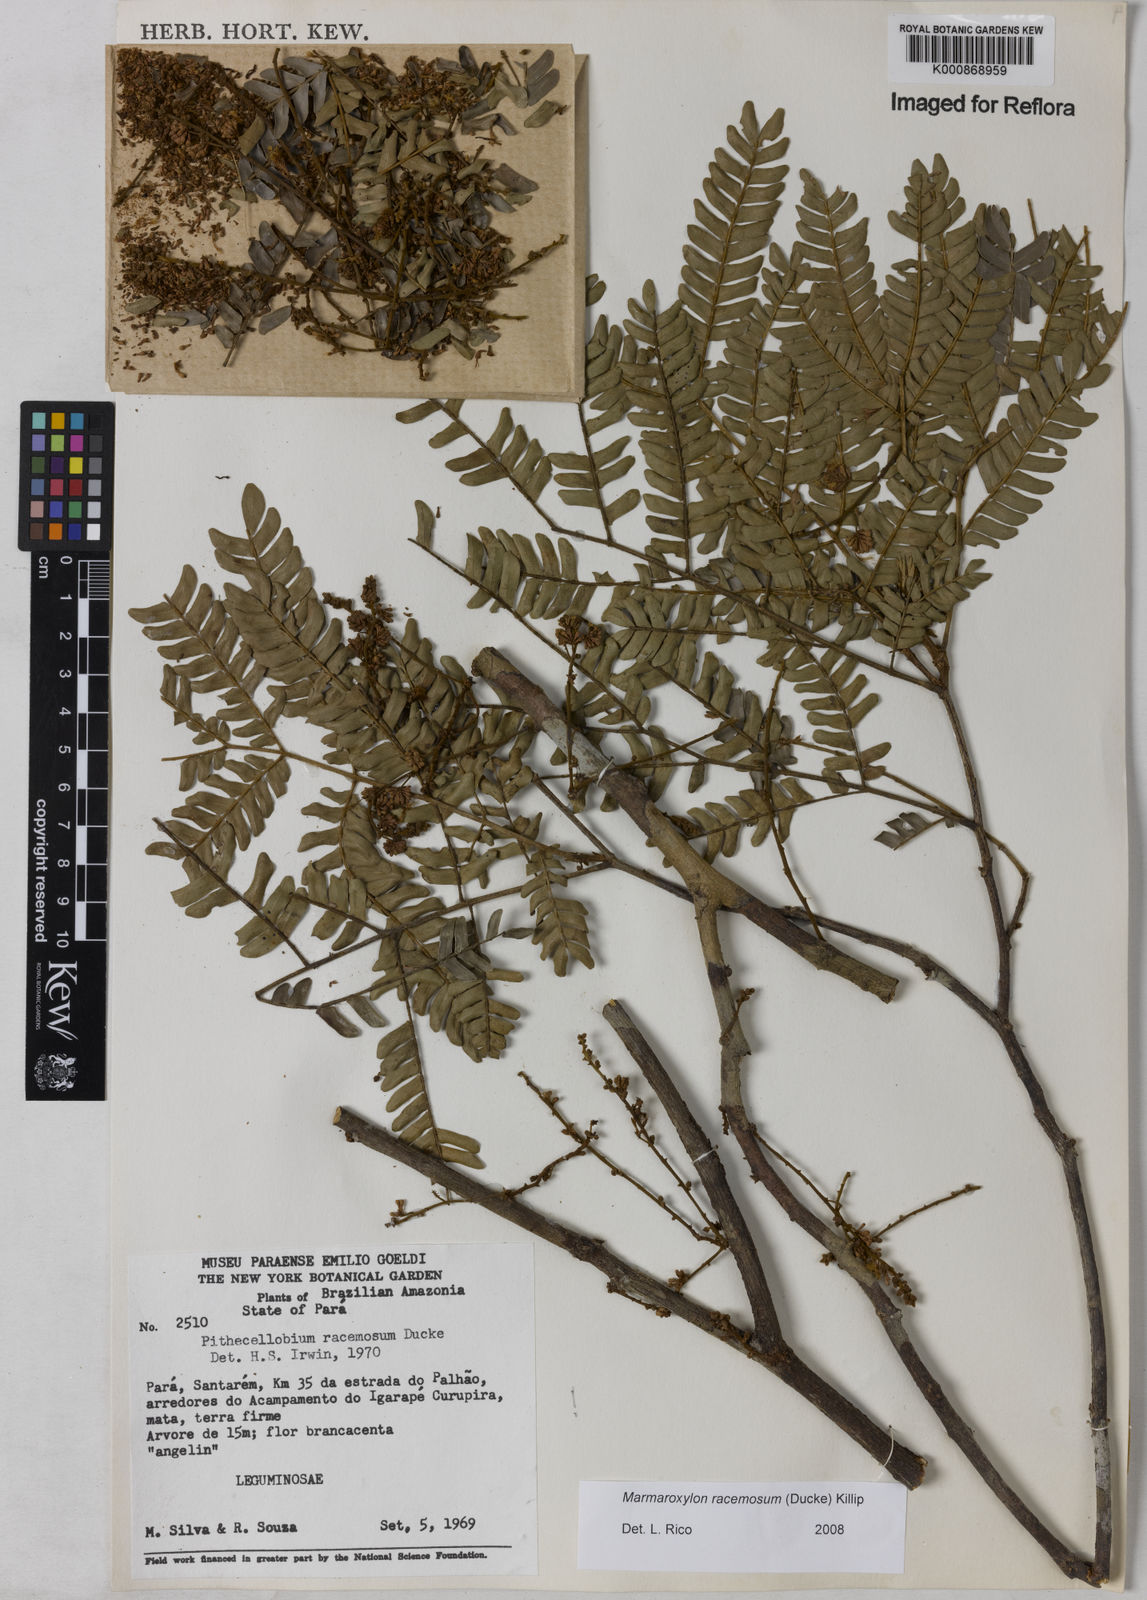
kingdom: Plantae
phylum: Tracheophyta
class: Magnoliopsida
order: Fabales
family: Fabaceae
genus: Zygia
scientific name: Zygia racemosa
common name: Marblewood
